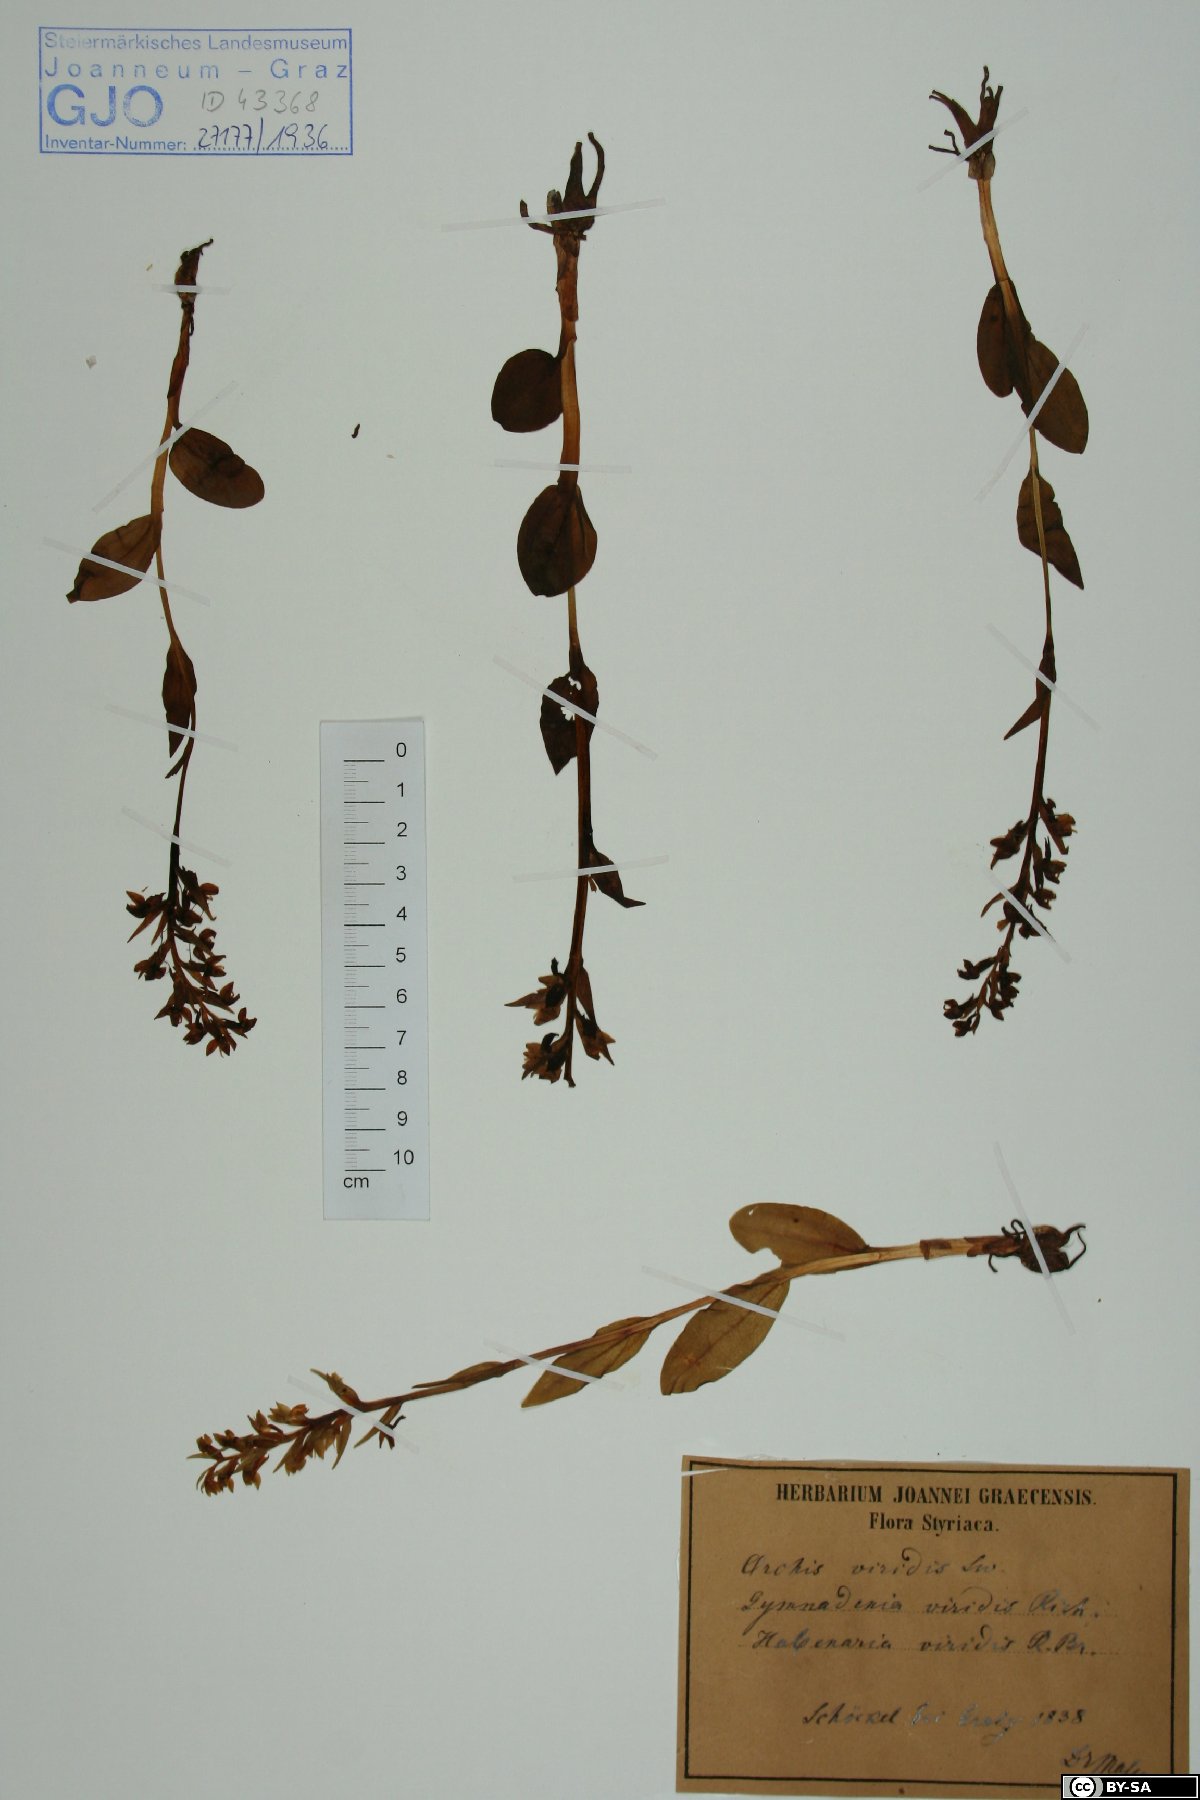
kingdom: Plantae
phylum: Tracheophyta
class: Liliopsida
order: Asparagales
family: Orchidaceae
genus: Dactylorhiza
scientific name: Dactylorhiza viridis
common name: Longbract frog orchid
